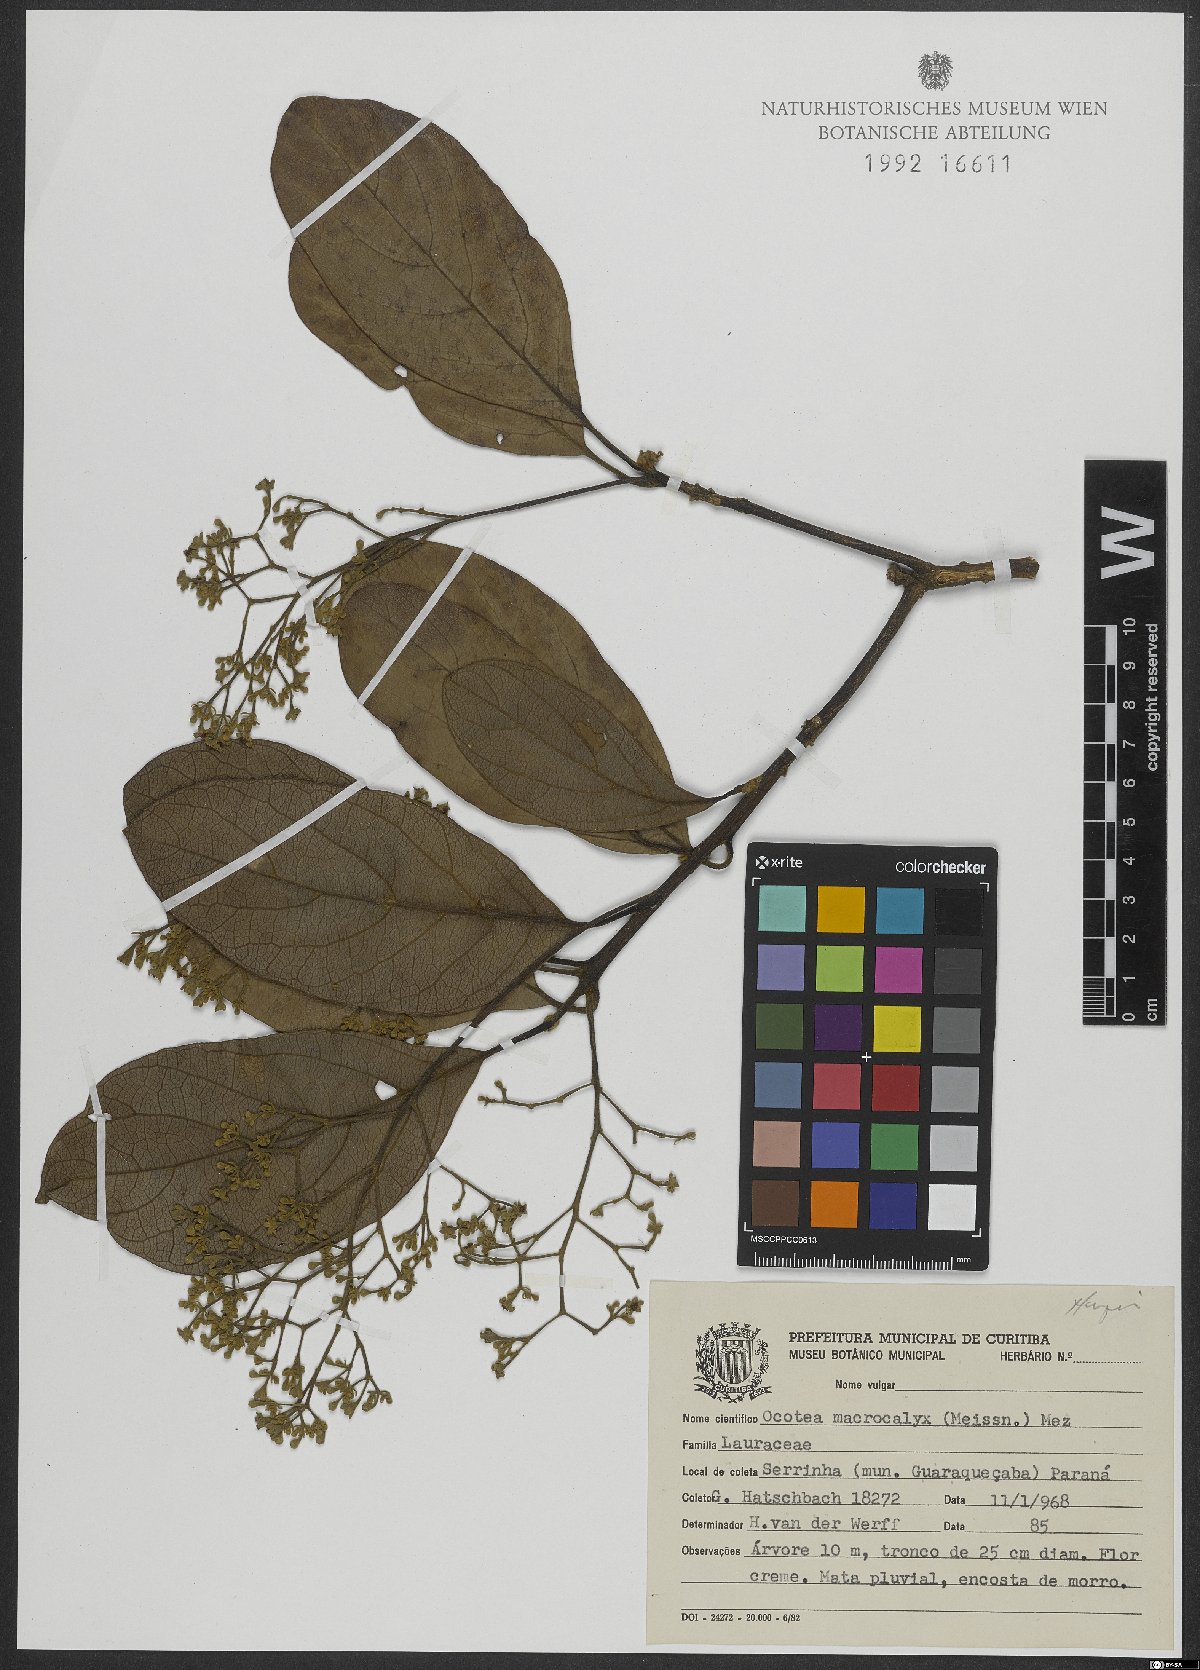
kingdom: Plantae
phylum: Tracheophyta
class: Magnoliopsida
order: Laurales
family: Lauraceae
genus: Rhodostemonodaphne
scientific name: Rhodostemonodaphne macrocalyx
